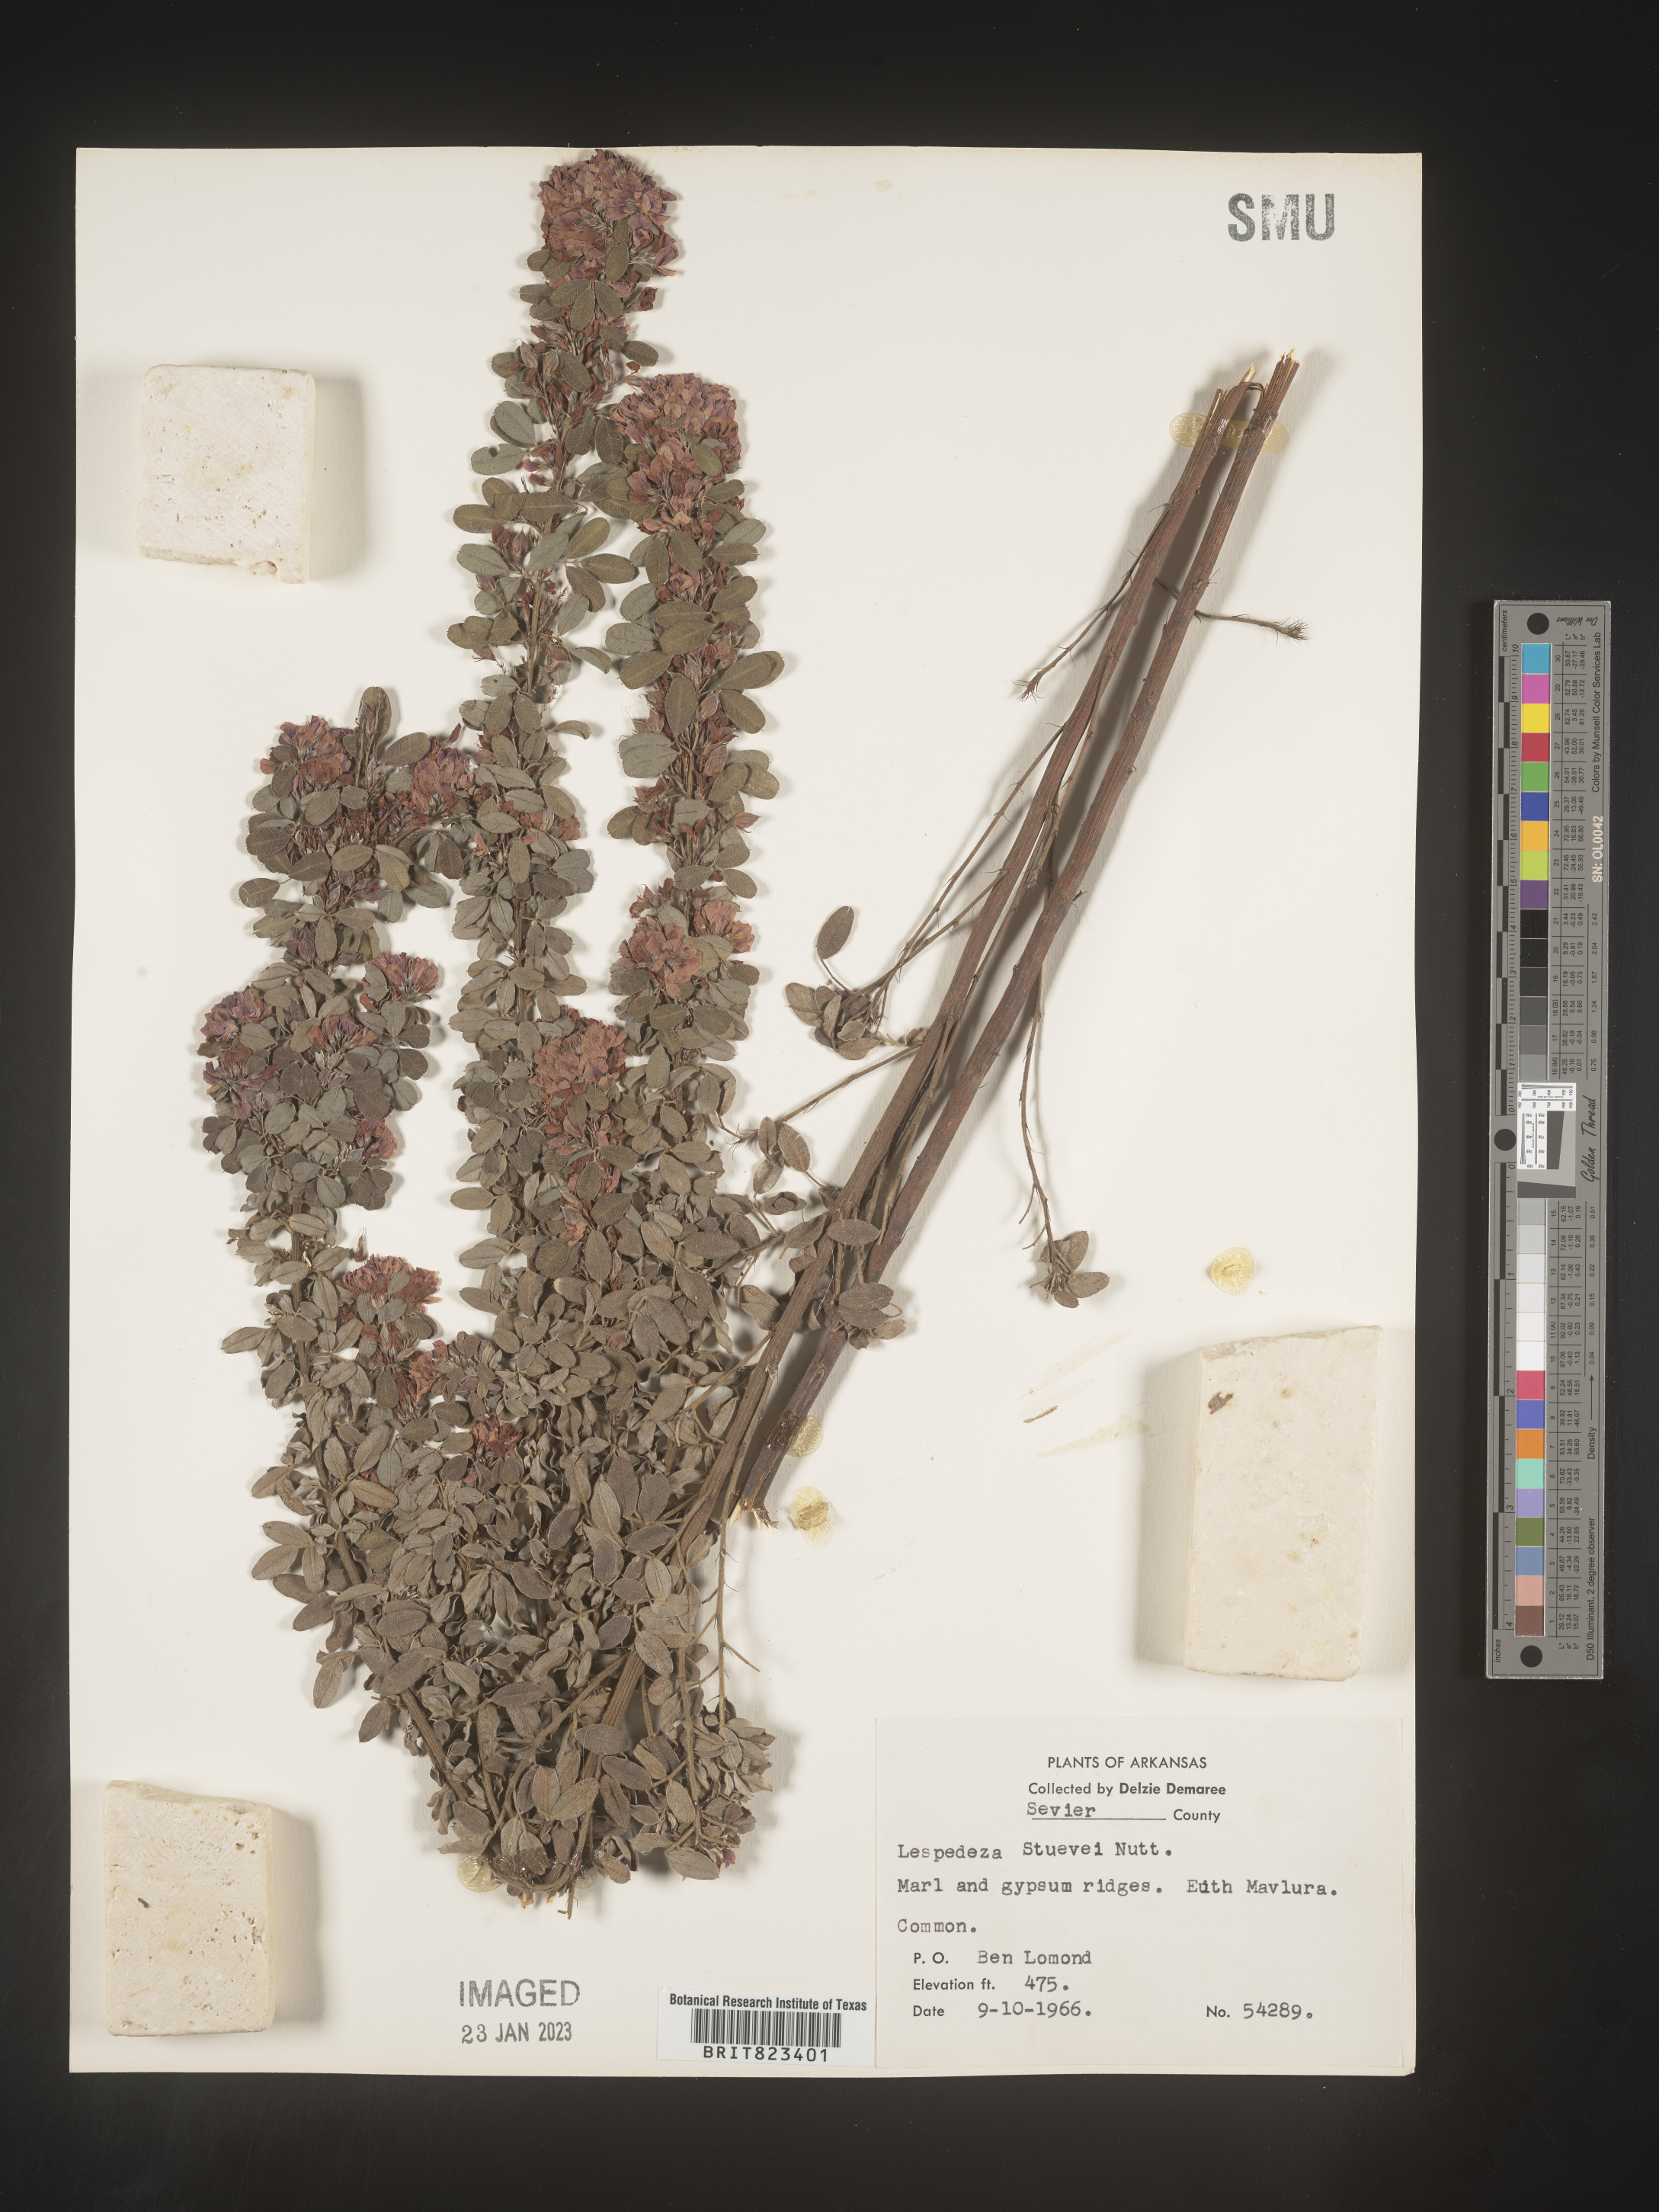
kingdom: Plantae
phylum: Tracheophyta
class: Magnoliopsida
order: Fabales
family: Fabaceae
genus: Lespedeza
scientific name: Lespedeza stuevei
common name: Tall bush-clover
